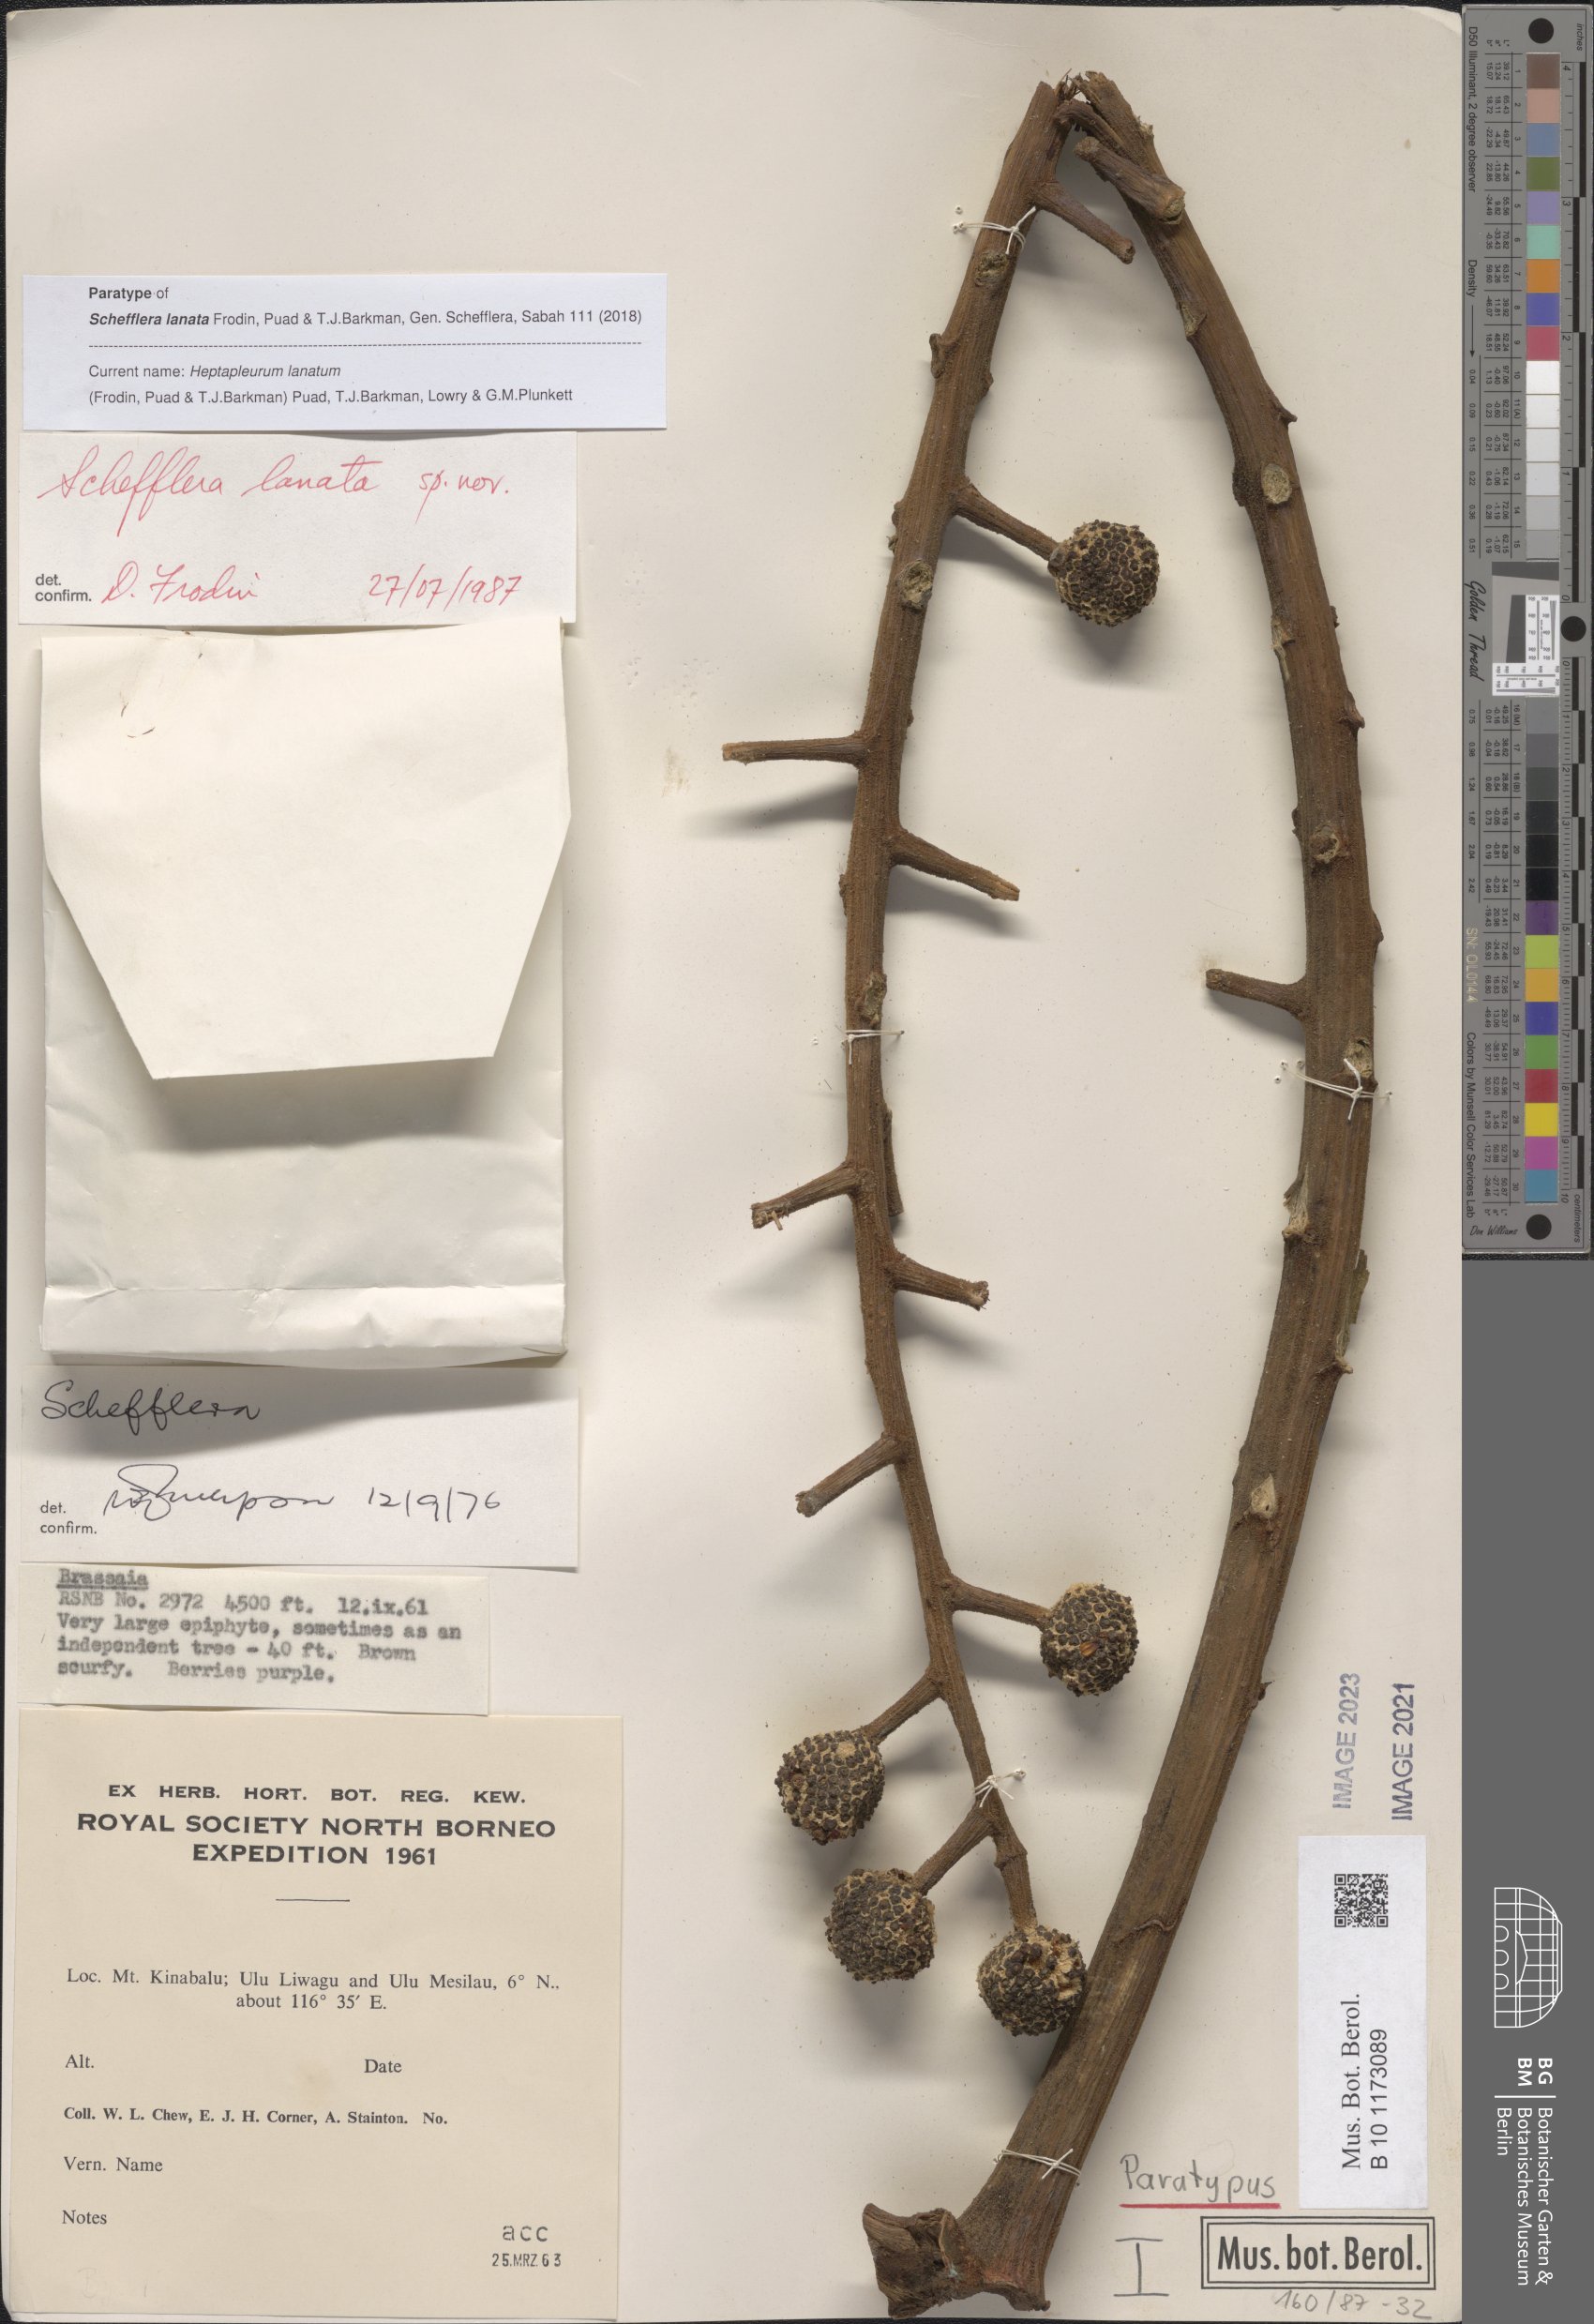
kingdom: Plantae
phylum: Tracheophyta
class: Magnoliopsida
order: Apiales
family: Araliaceae
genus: Heptapleurum
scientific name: Heptapleurum lanatum
